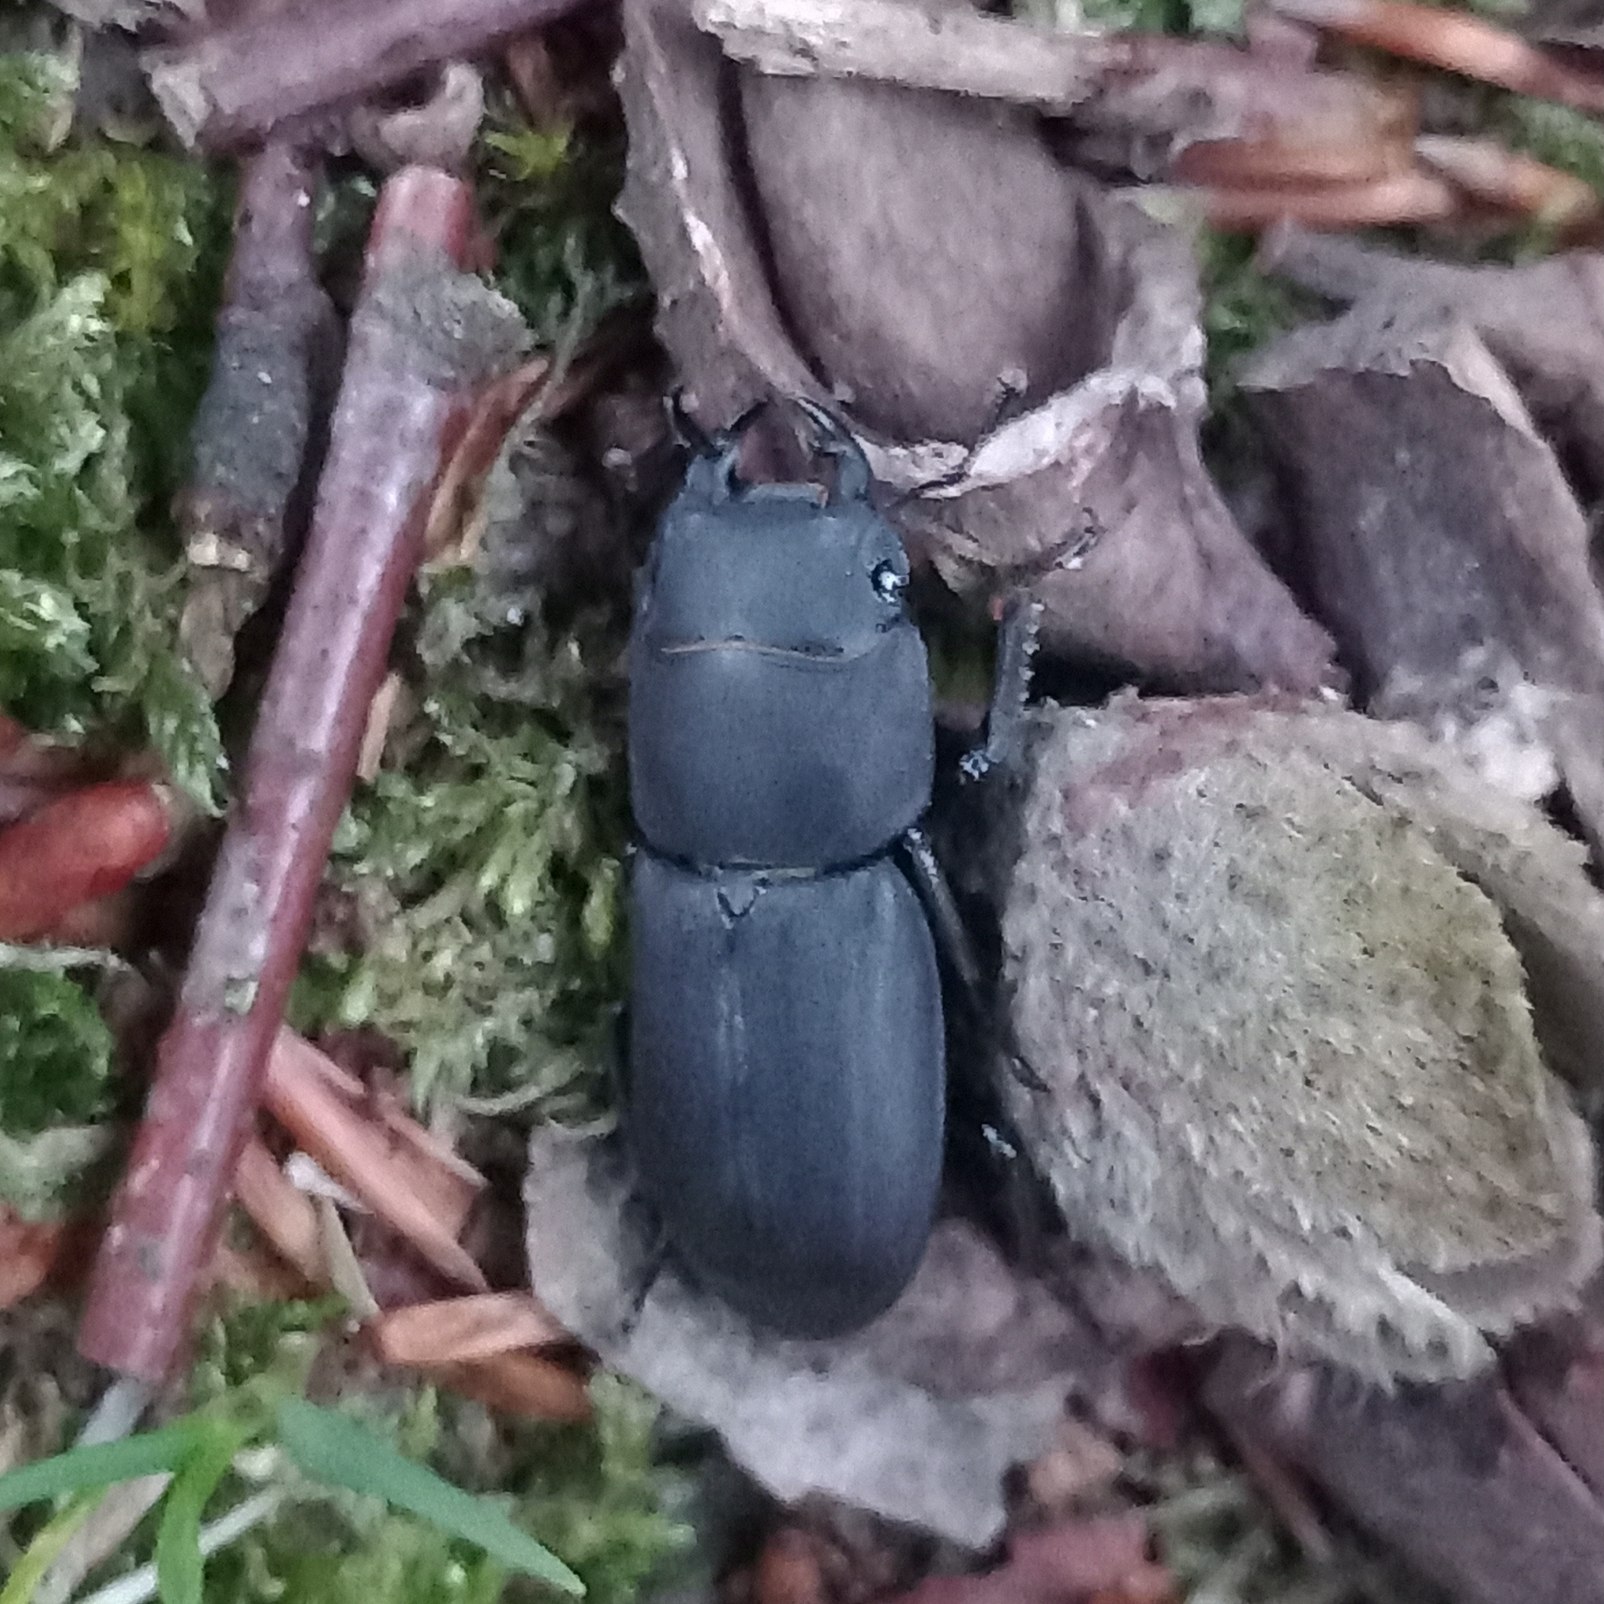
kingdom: Animalia
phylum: Arthropoda
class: Insecta
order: Coleoptera
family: Lucanidae
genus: Dorcus
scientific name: Dorcus parallelipipedus
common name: Bøghjort
